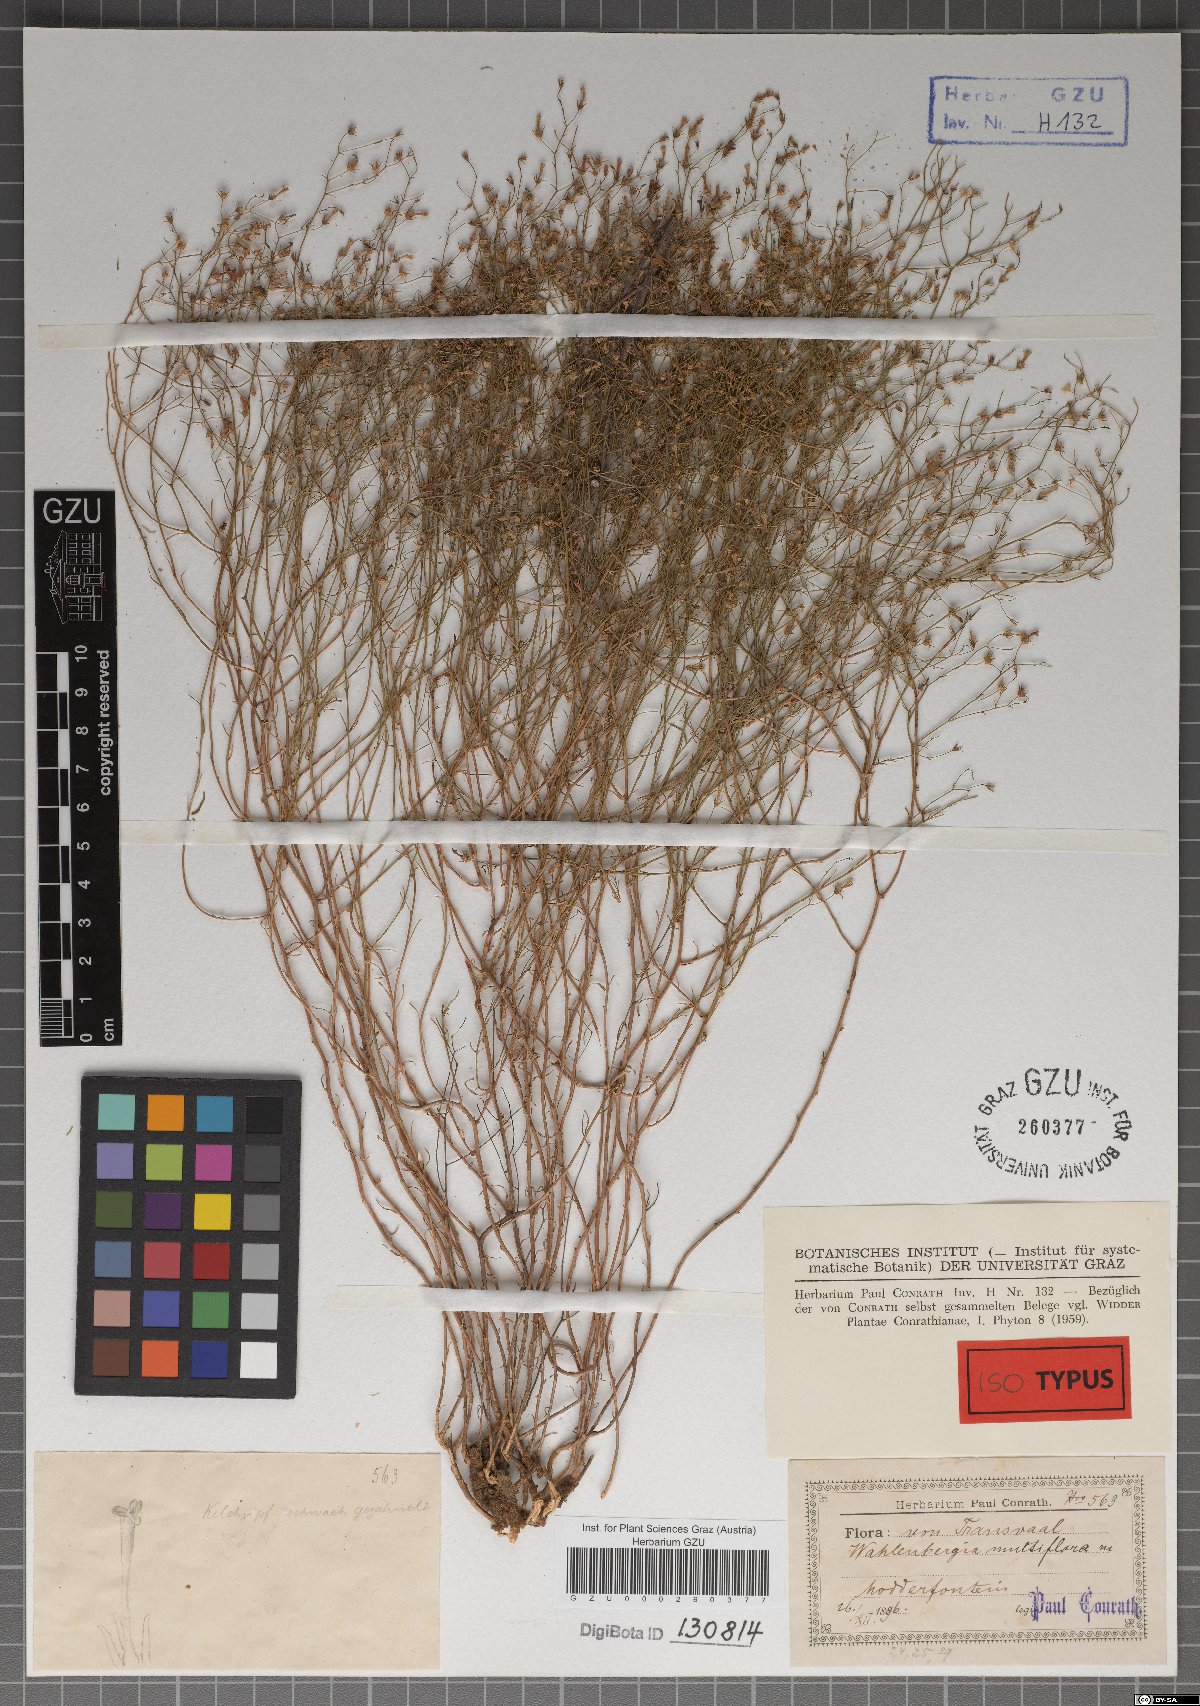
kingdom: Plantae
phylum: Tracheophyta
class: Magnoliopsida
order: Asterales
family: Campanulaceae
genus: Wahlenbergia
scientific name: Wahlenbergia banksiana
